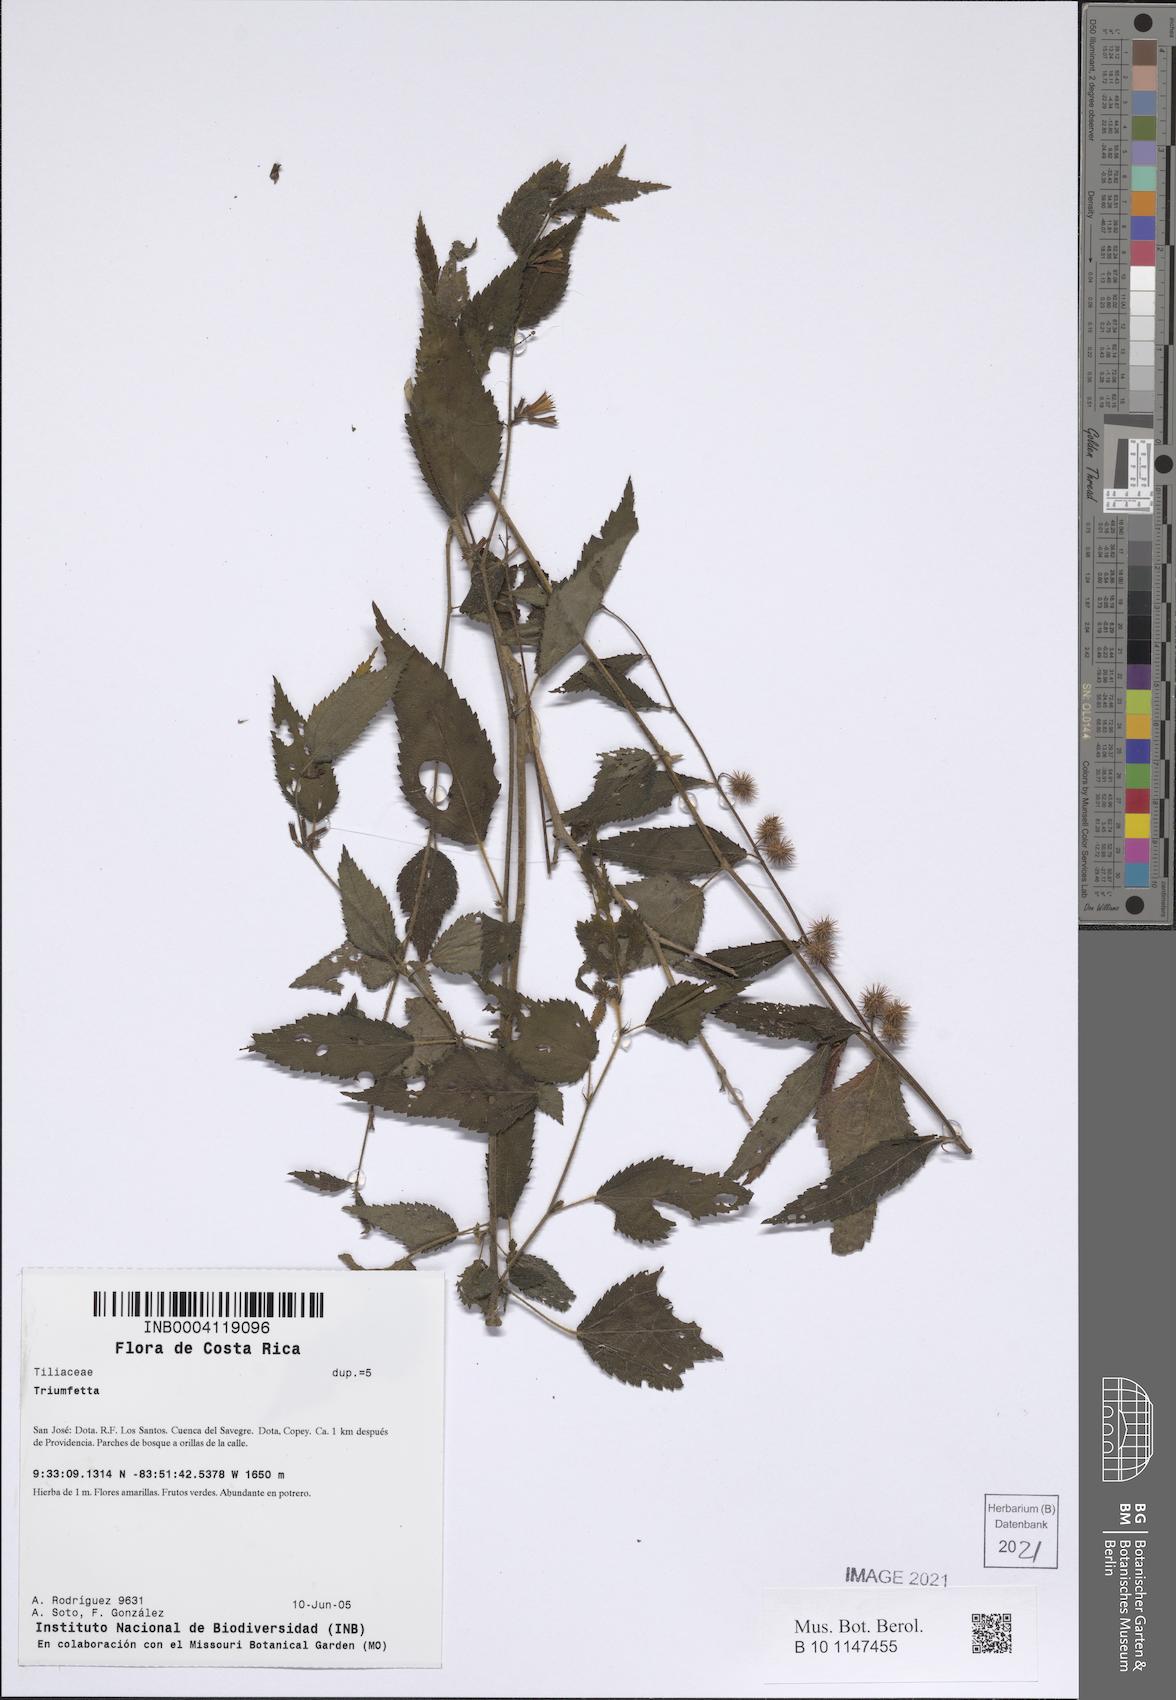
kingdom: Plantae
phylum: Tracheophyta
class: Magnoliopsida
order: Malvales
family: Malvaceae
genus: Triumfetta
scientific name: Triumfetta
